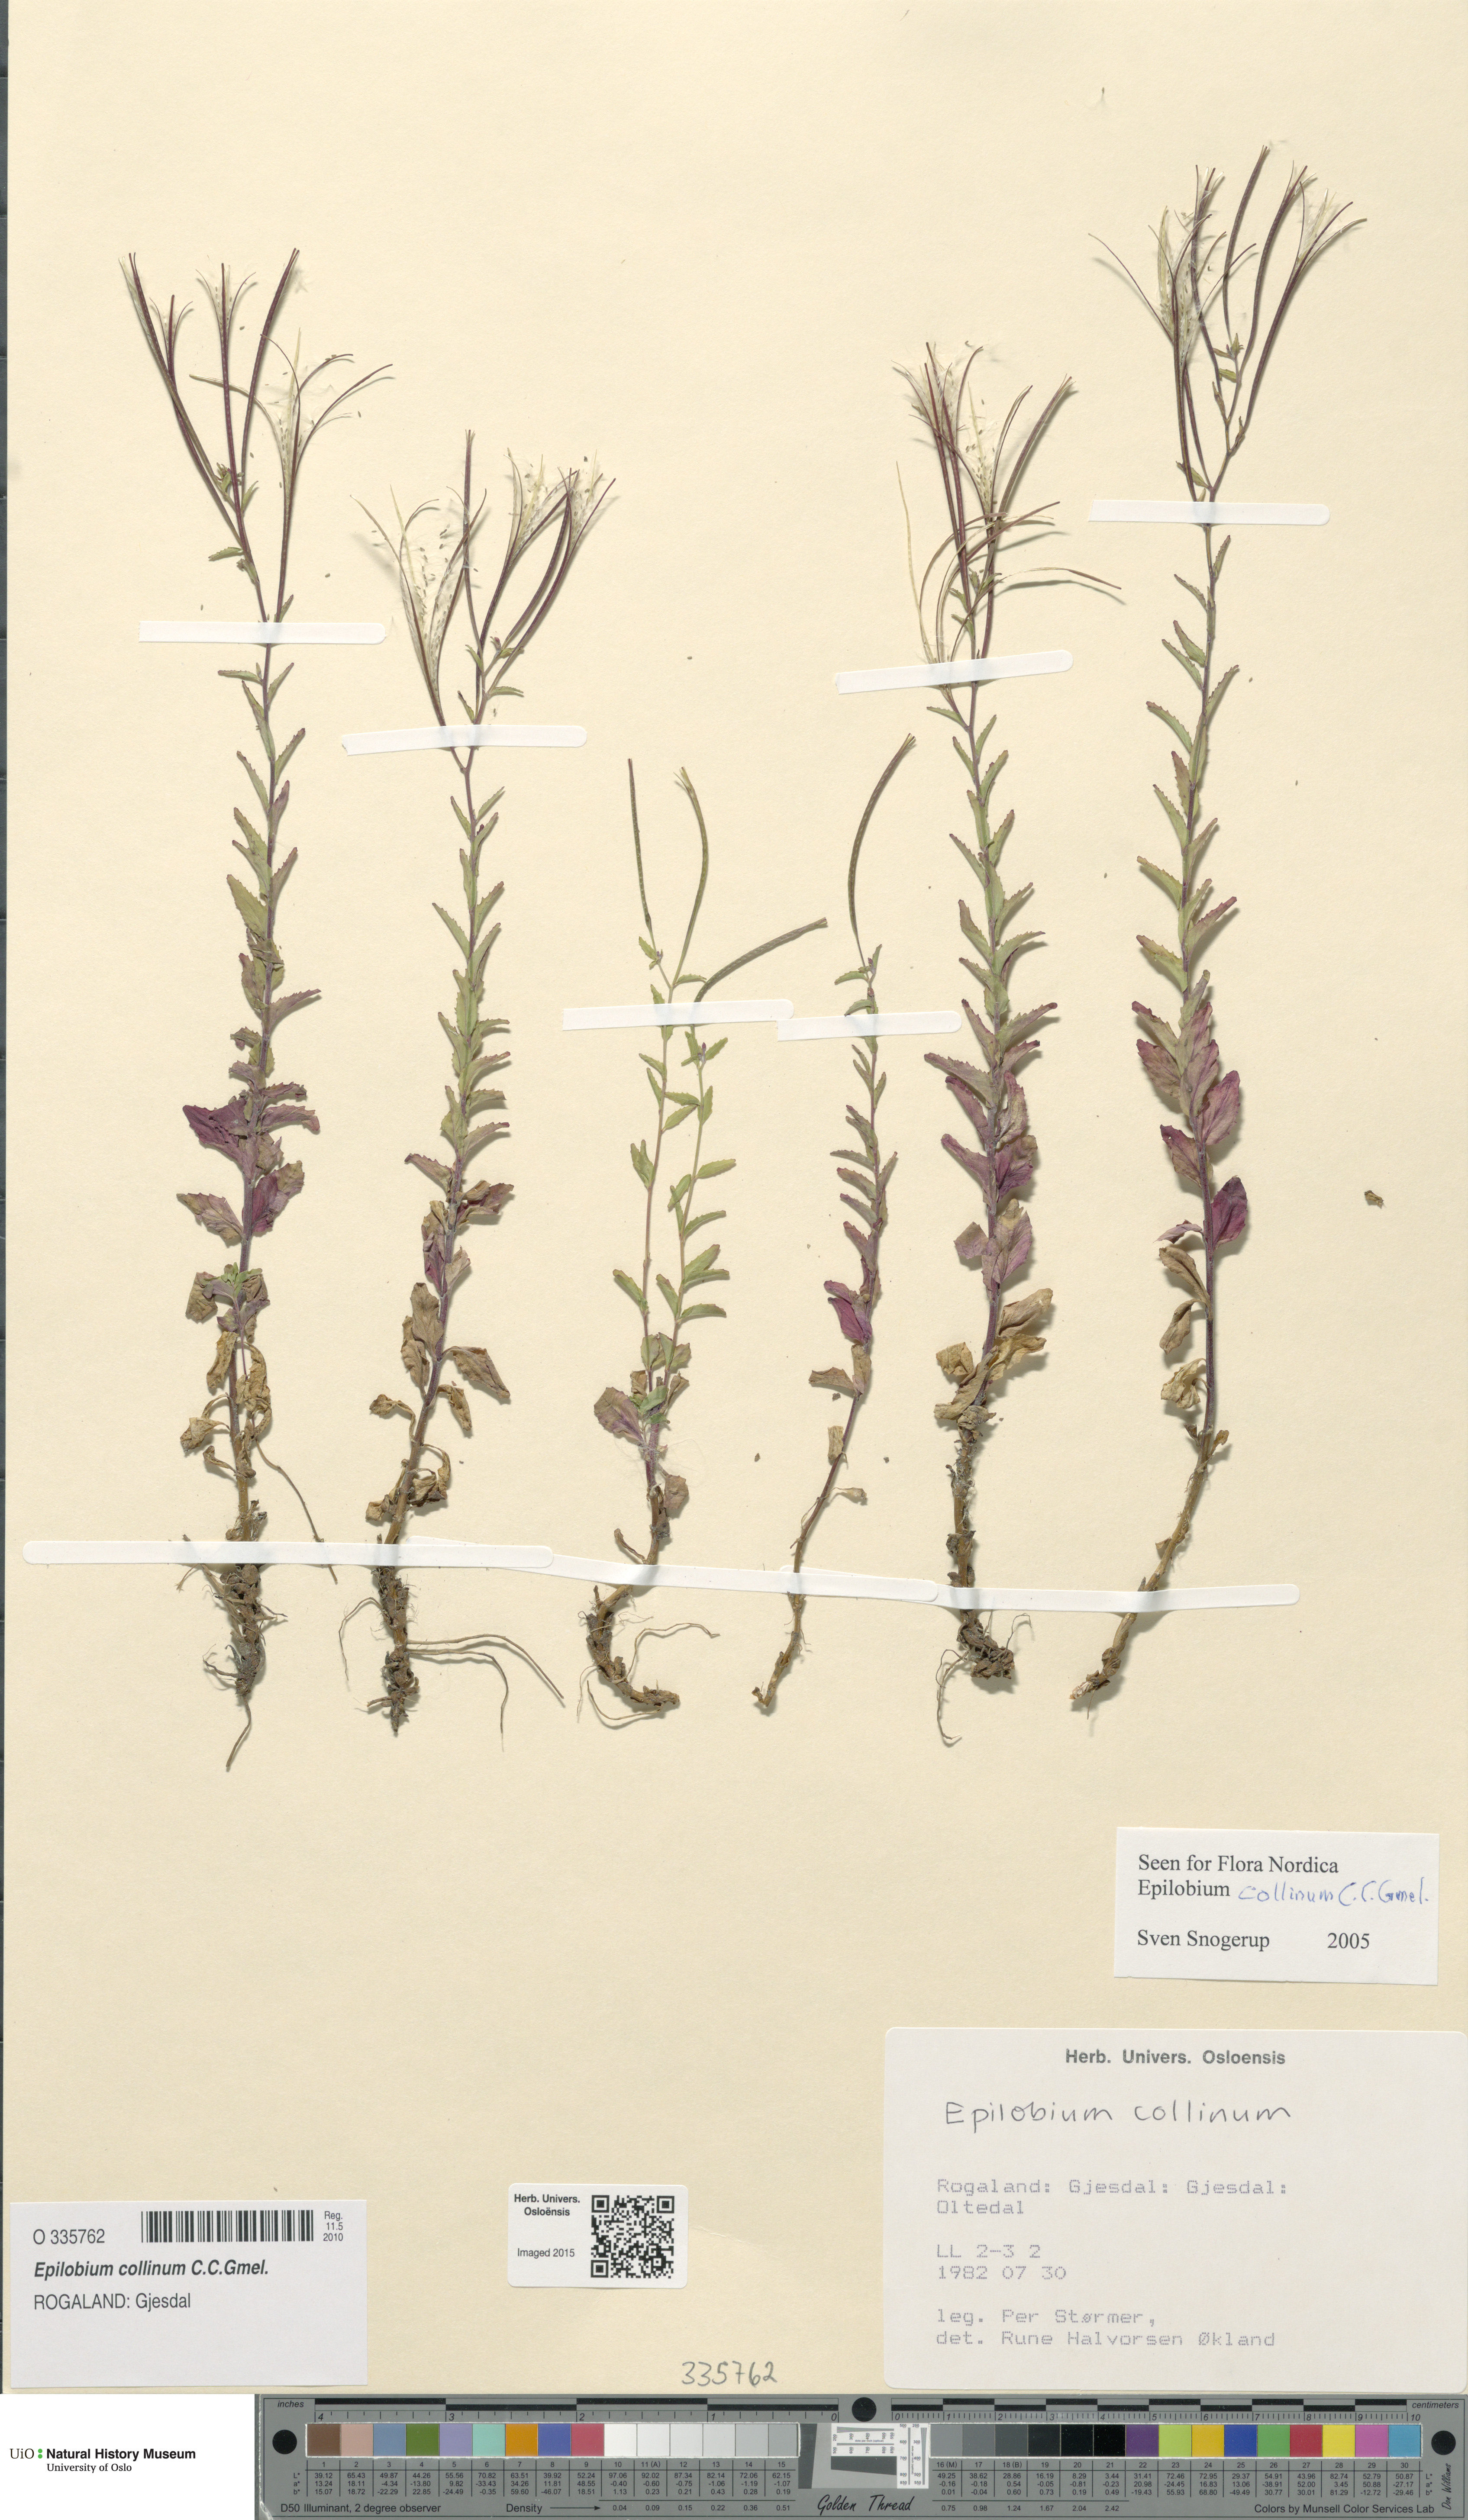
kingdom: Plantae
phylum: Tracheophyta
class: Magnoliopsida
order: Myrtales
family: Onagraceae
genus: Epilobium
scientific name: Epilobium collinum
